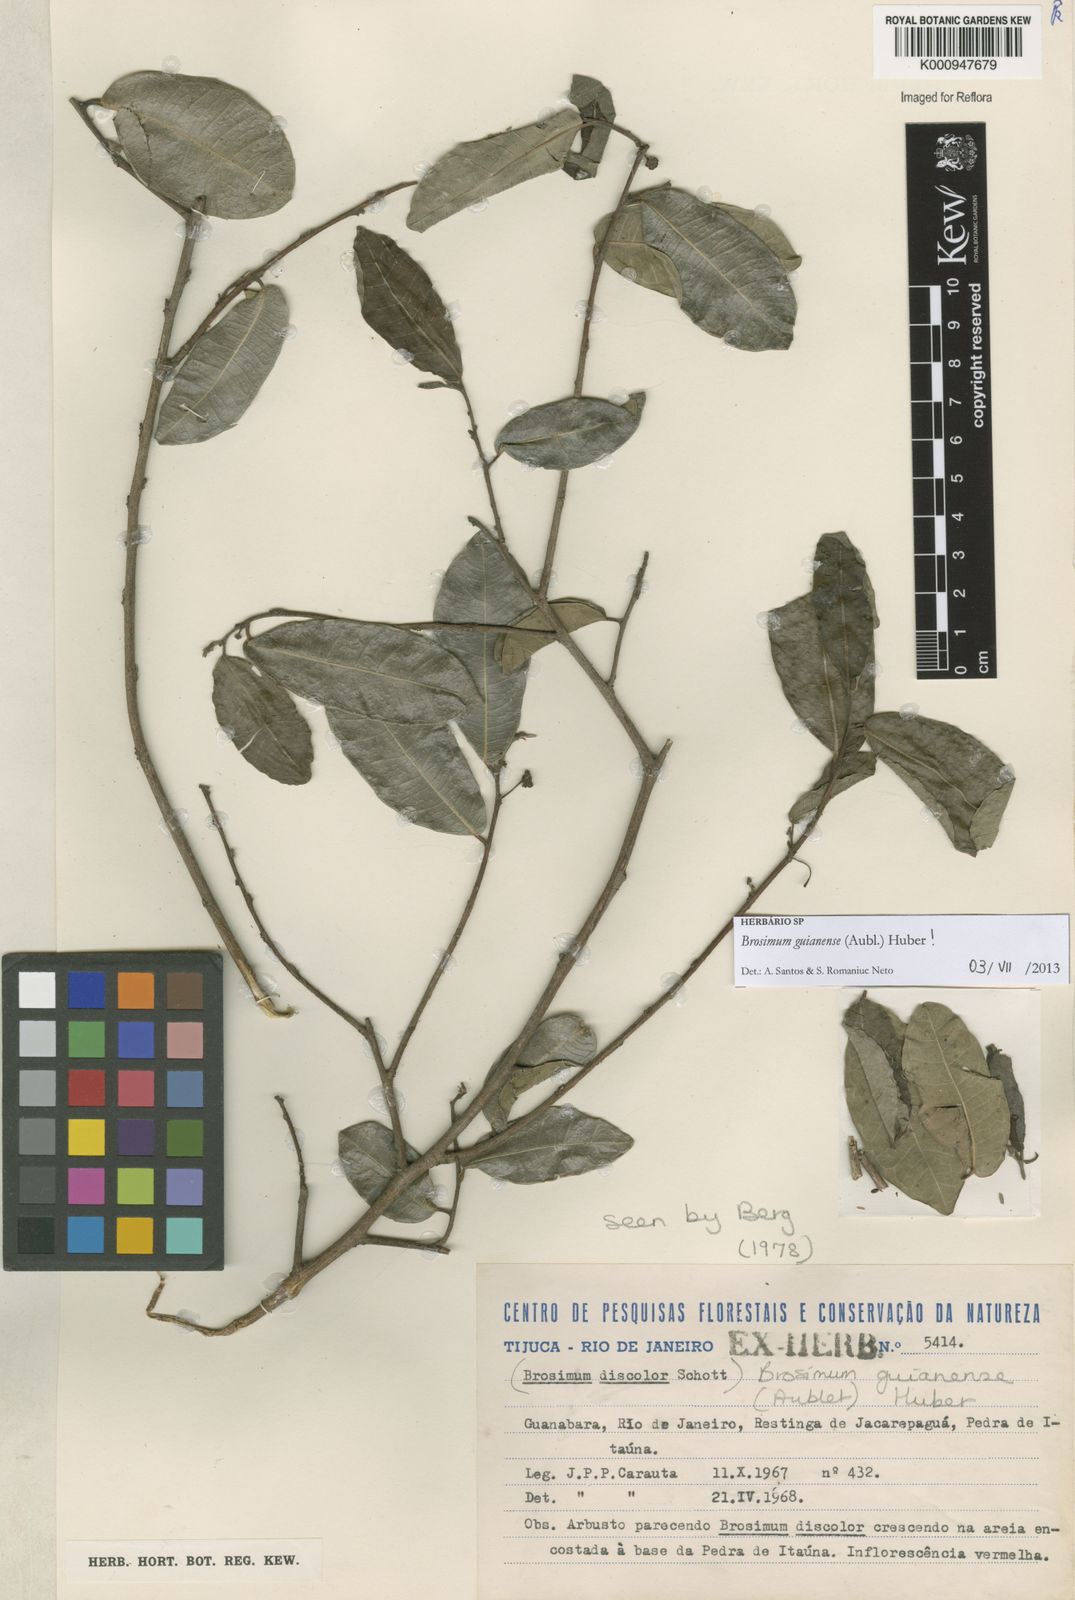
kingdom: Plantae
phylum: Tracheophyta
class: Magnoliopsida
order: Rosales
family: Moraceae
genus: Brosimum
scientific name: Brosimum
